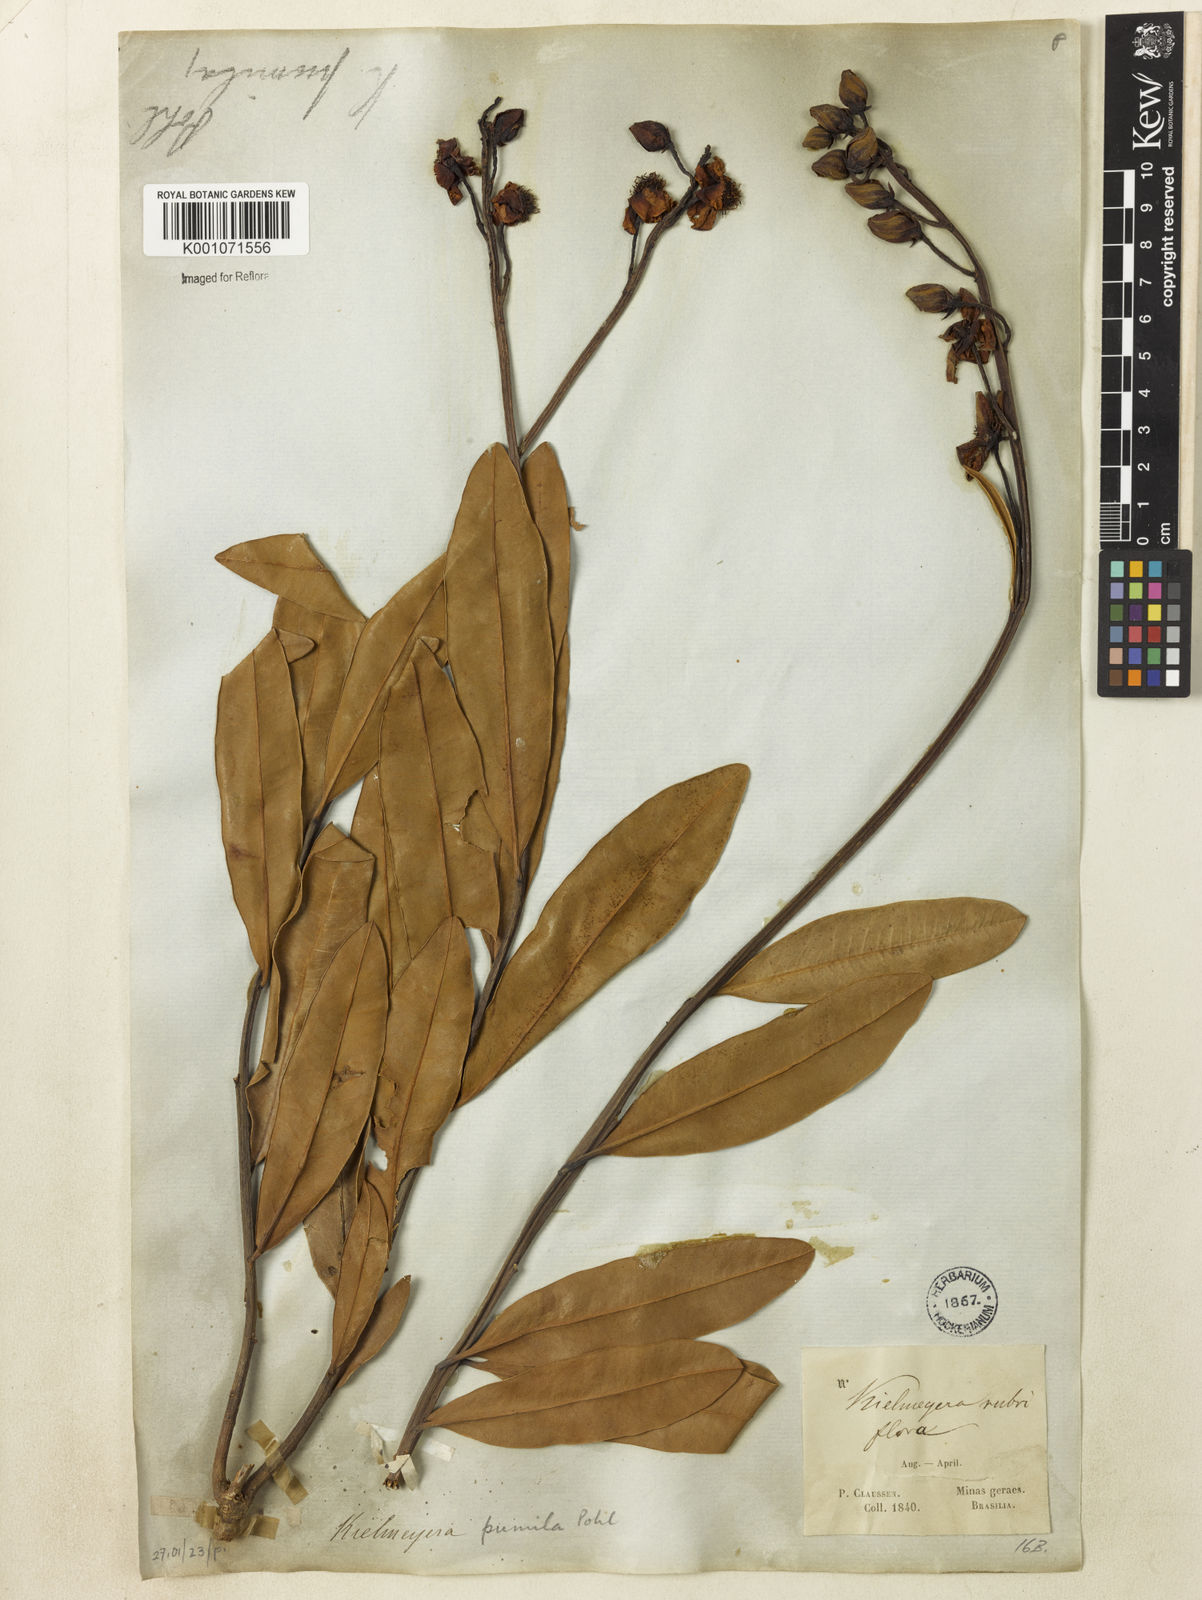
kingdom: Plantae
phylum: Tracheophyta
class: Magnoliopsida
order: Malpighiales
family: Calophyllaceae
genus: Kielmeyera
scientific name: Kielmeyera pumila
